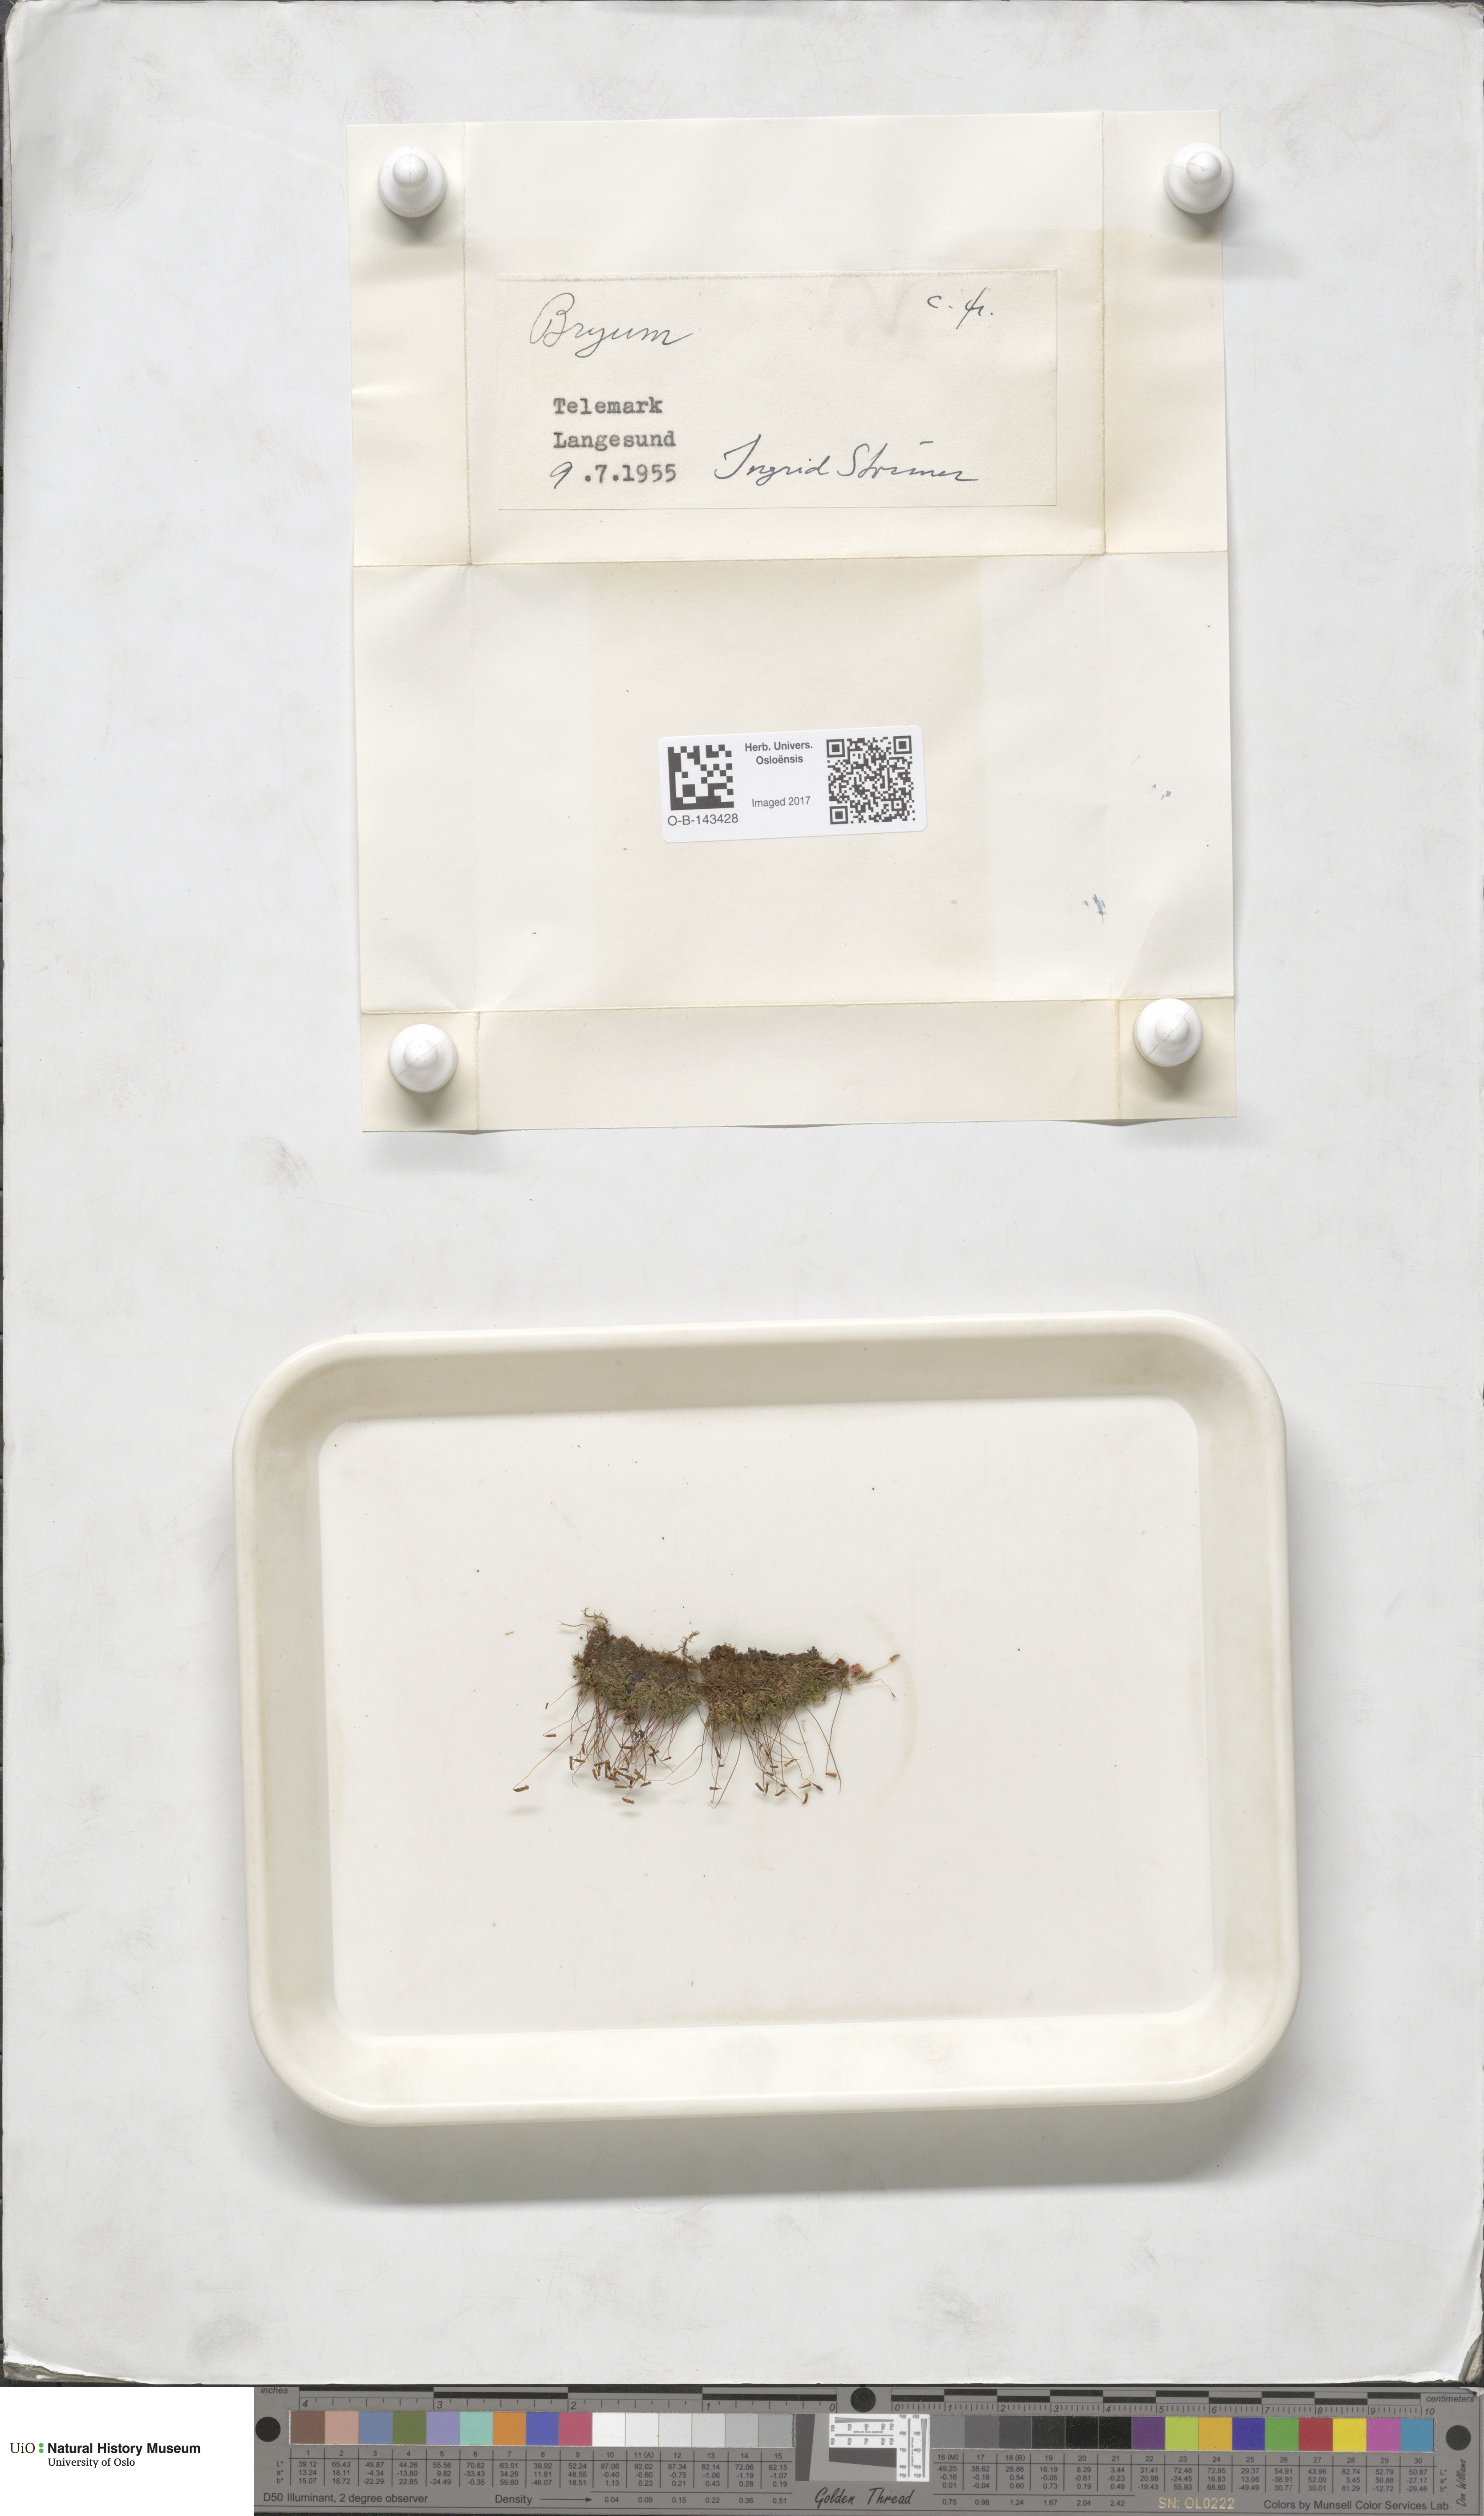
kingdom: Plantae
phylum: Bryophyta
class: Bryopsida
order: Bryales
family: Bryaceae
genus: Bryum
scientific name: Bryum
